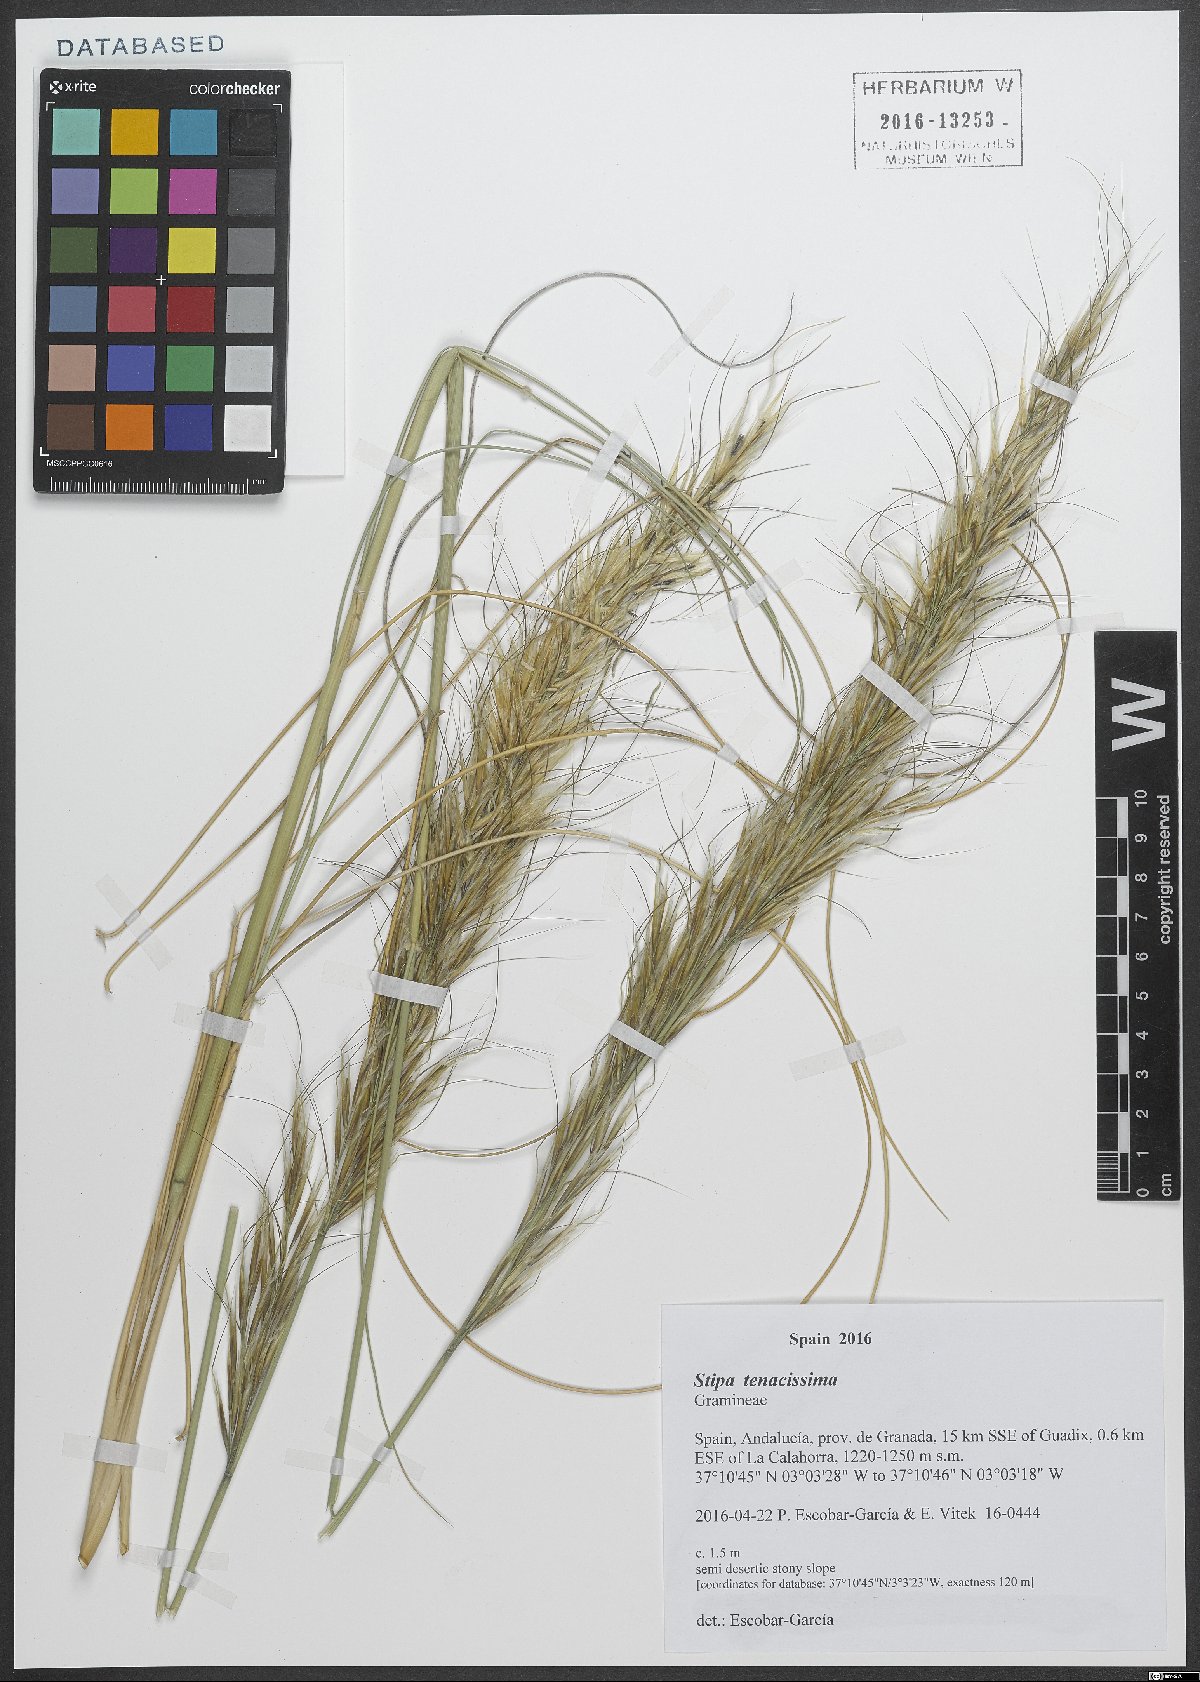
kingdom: Plantae
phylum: Tracheophyta
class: Liliopsida
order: Poales
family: Poaceae
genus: Macrochloa
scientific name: Macrochloa tenacissima
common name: Alfa grass
